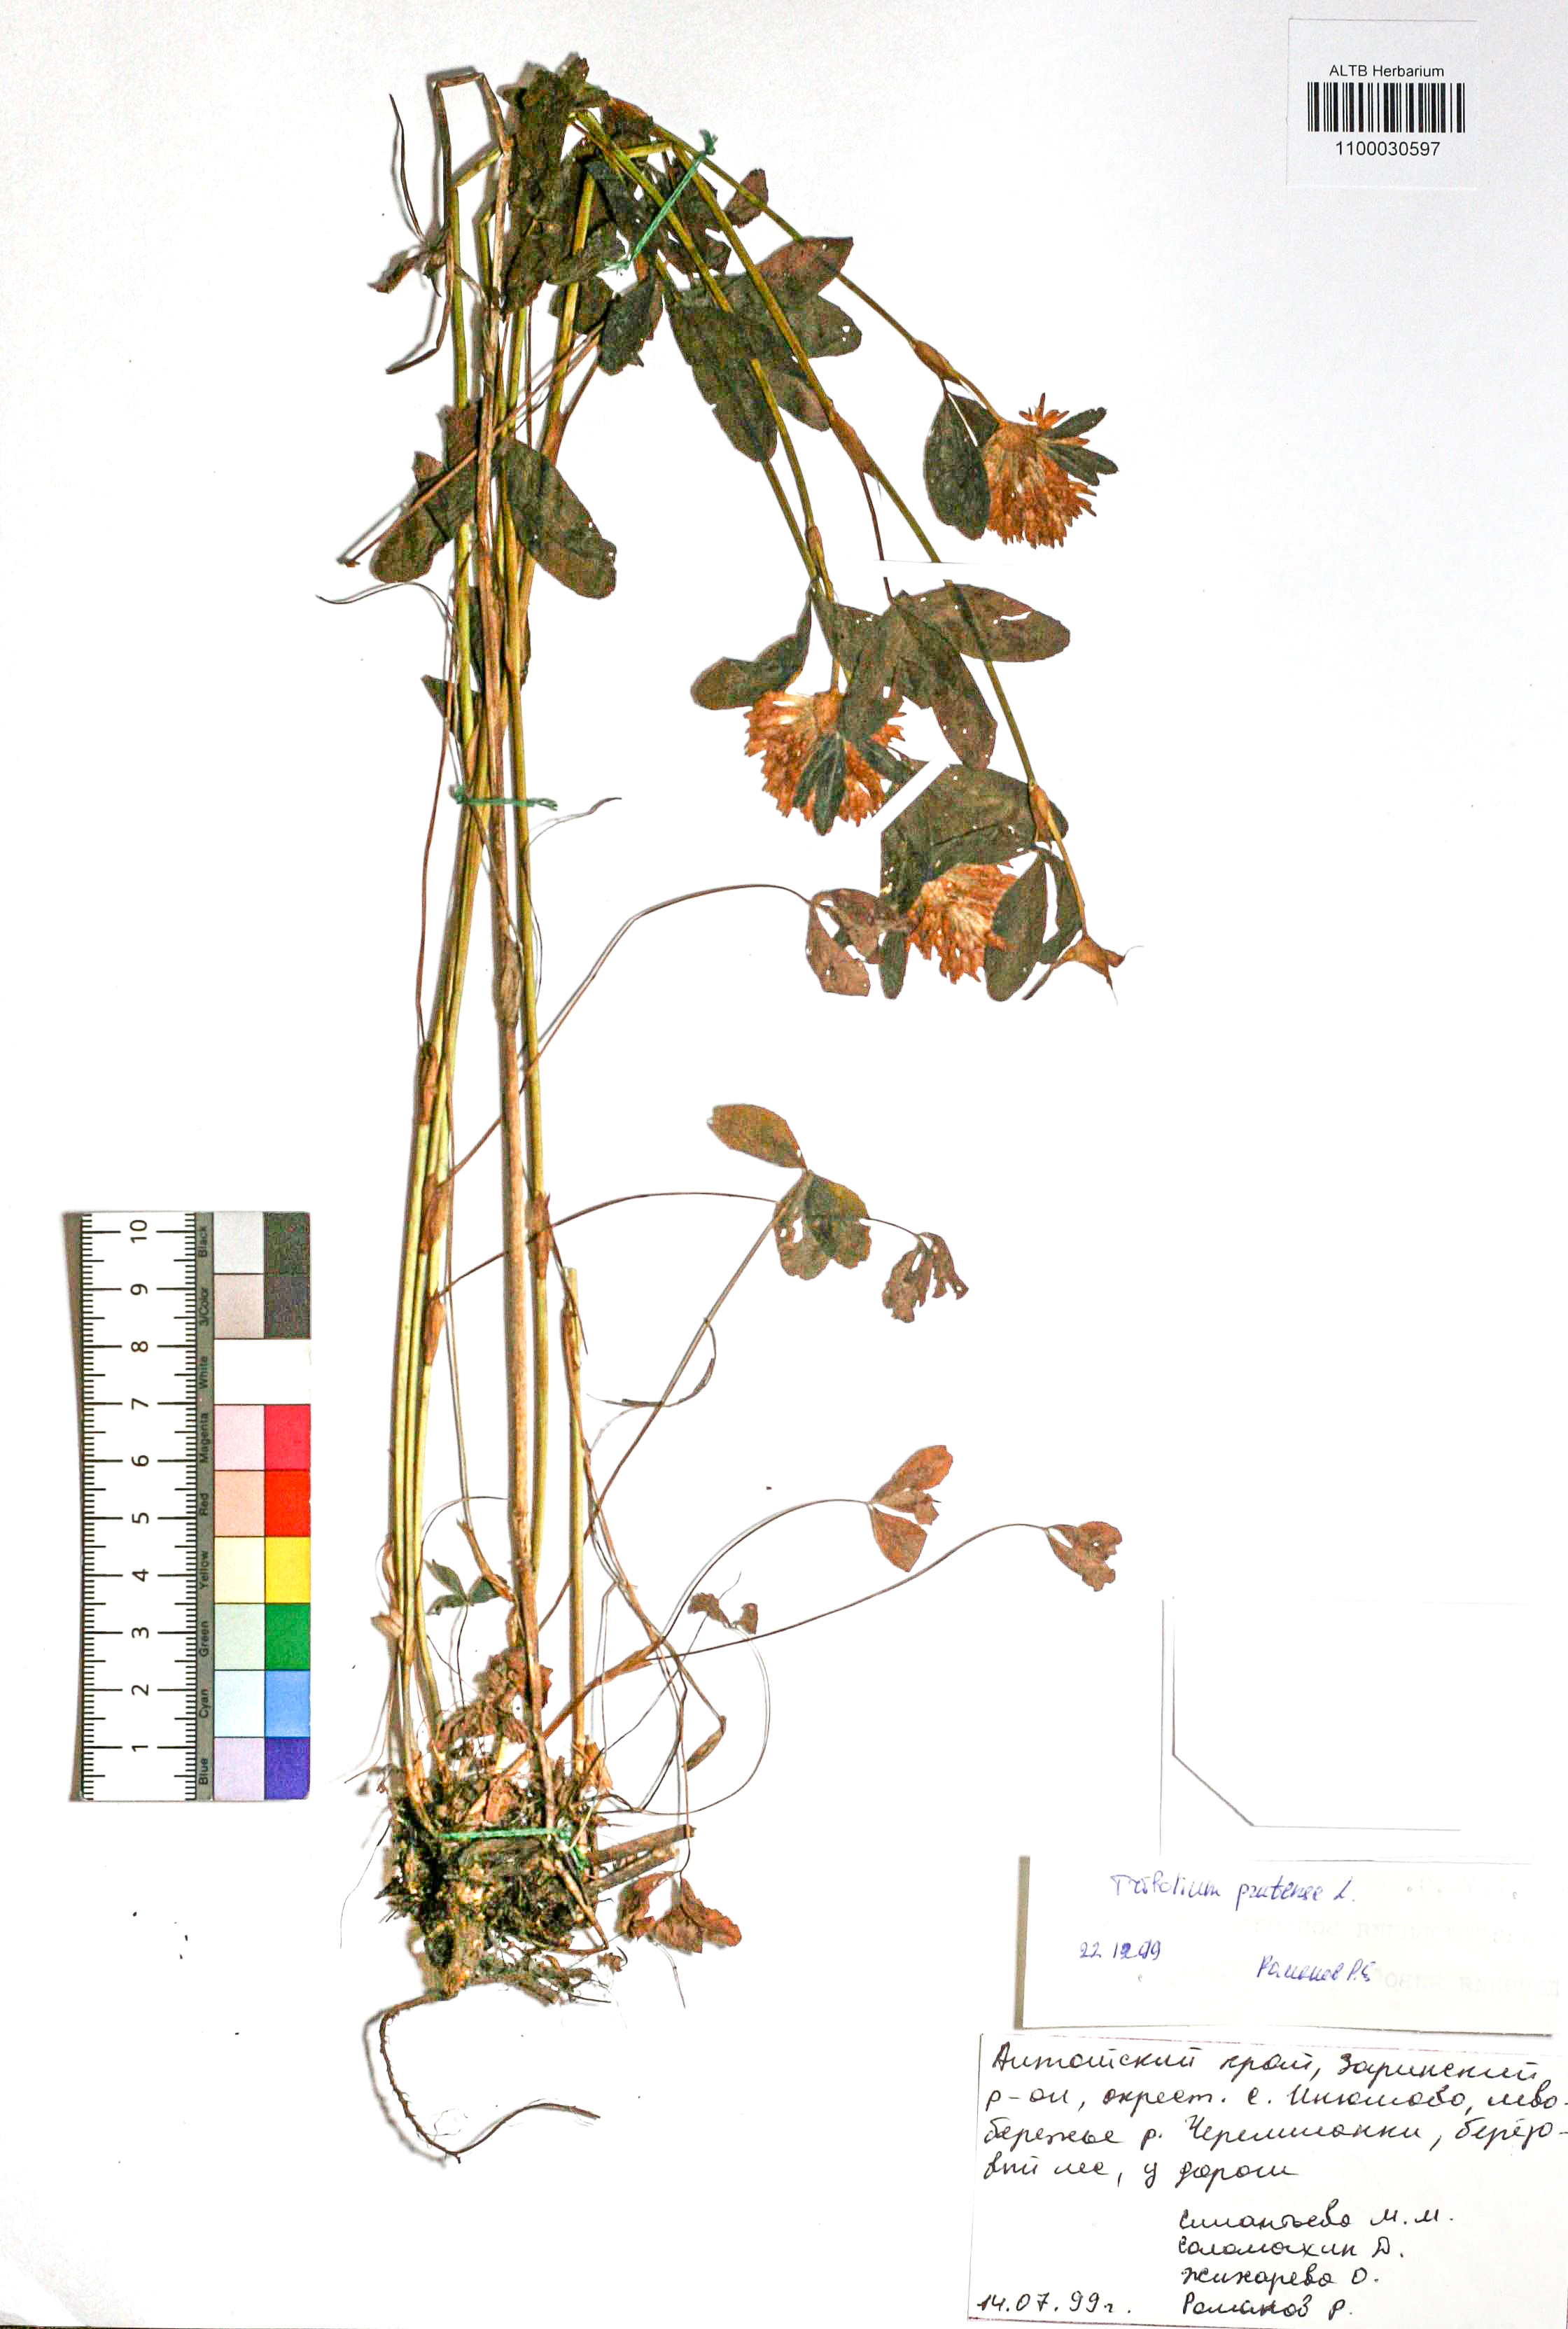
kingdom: Plantae
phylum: Tracheophyta
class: Magnoliopsida
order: Fabales
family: Fabaceae
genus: Trifolium
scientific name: Trifolium pratense
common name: Red clover
